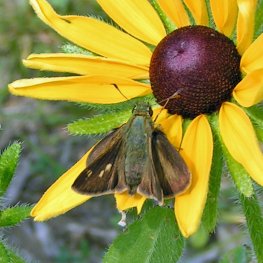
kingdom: Animalia
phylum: Arthropoda
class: Insecta
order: Lepidoptera
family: Hesperiidae
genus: Polites
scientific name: Polites egeremet
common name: Northern Broken-Dash
